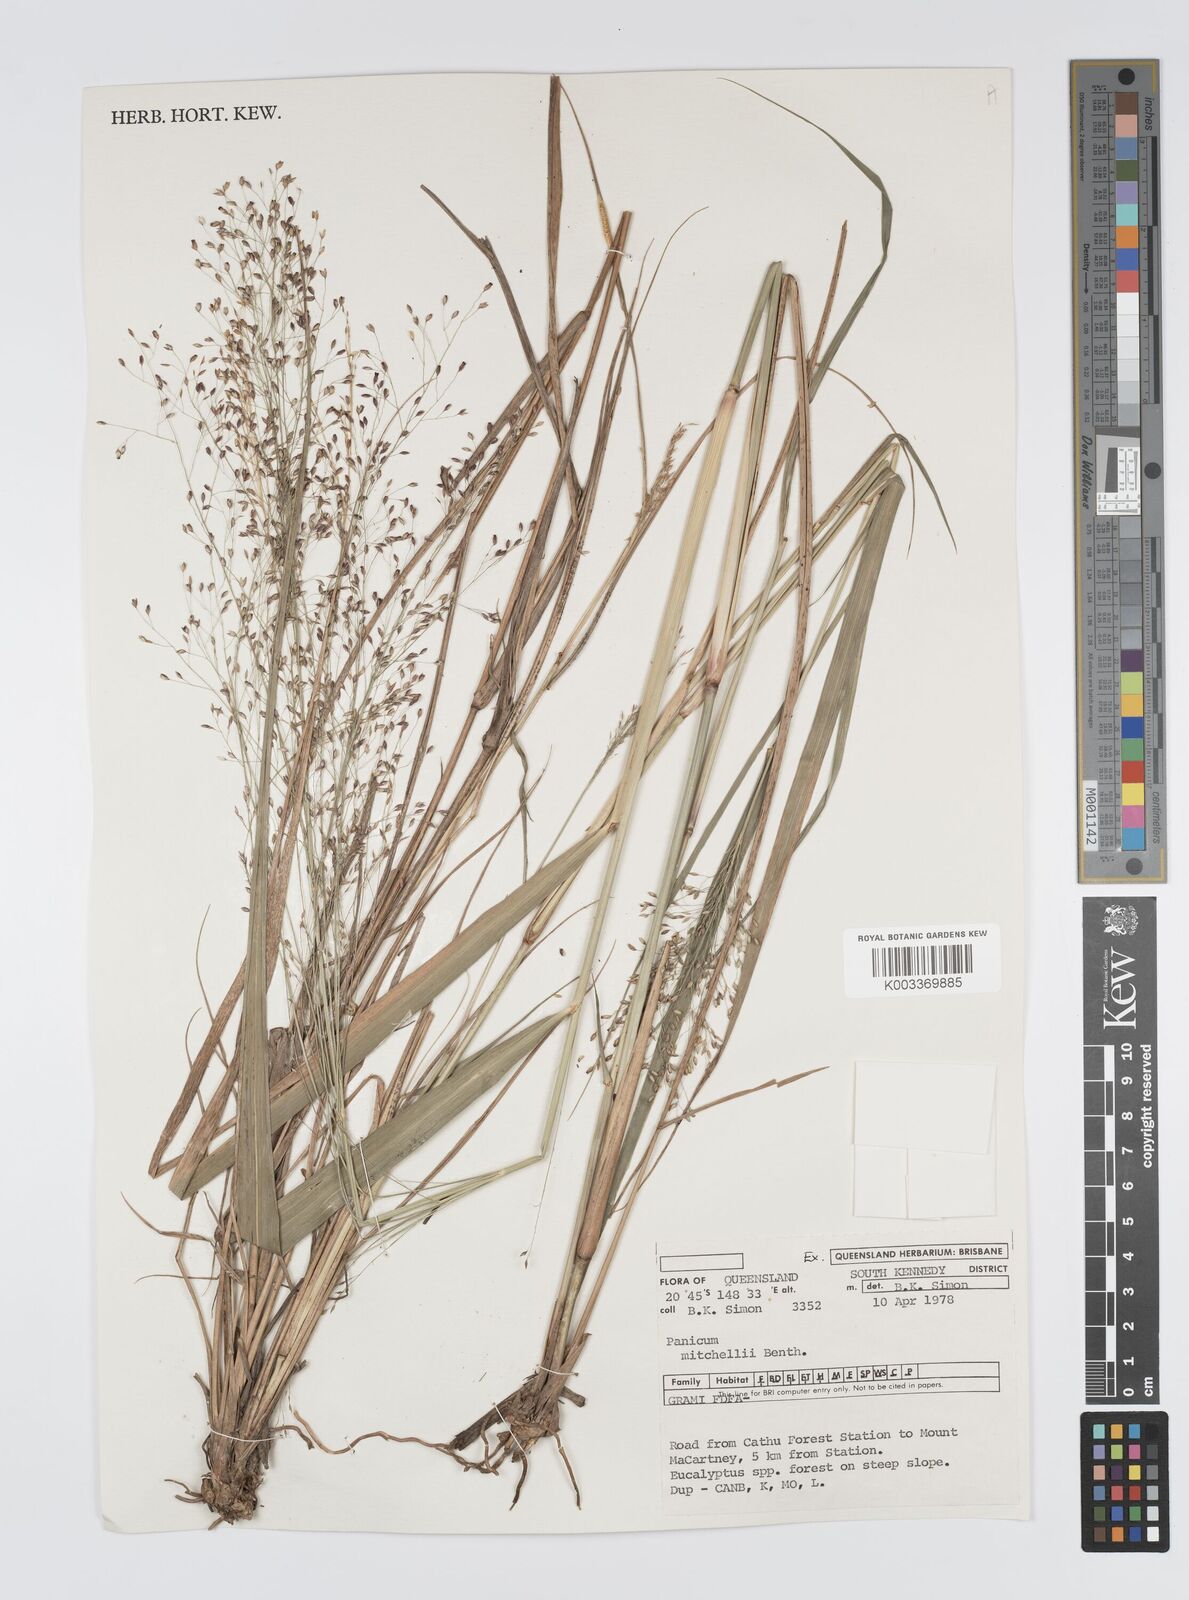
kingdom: Plantae
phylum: Tracheophyta
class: Liliopsida
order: Poales
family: Poaceae
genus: Panicum
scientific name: Panicum mitchellii
